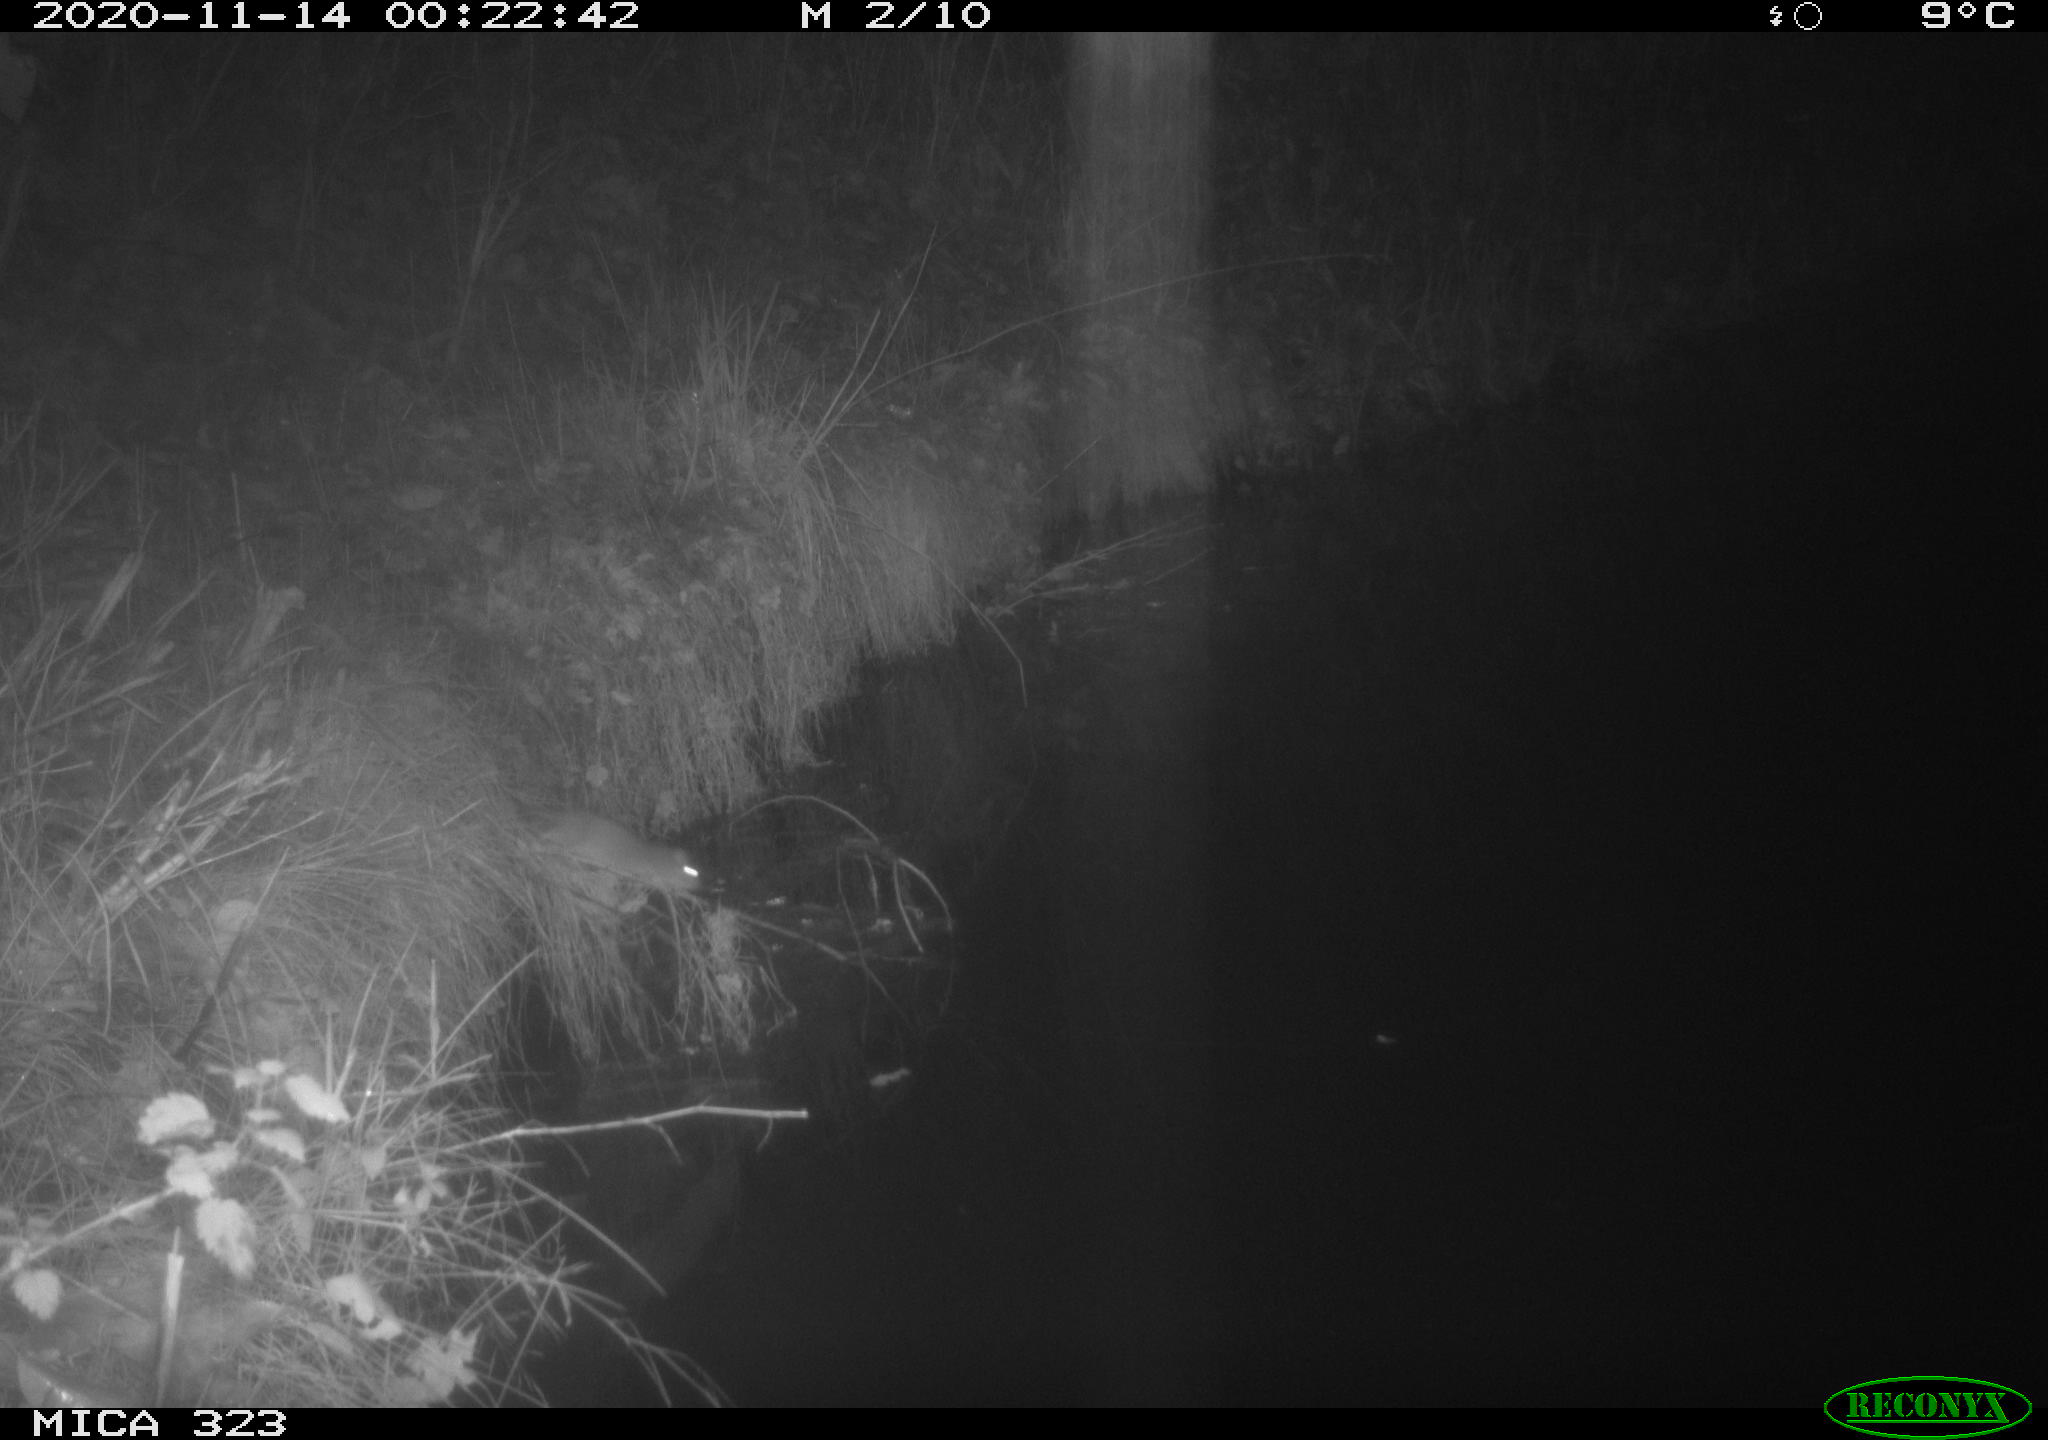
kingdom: Animalia
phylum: Chordata
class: Mammalia
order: Rodentia
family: Muridae
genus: Rattus
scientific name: Rattus norvegicus
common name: Brown rat
